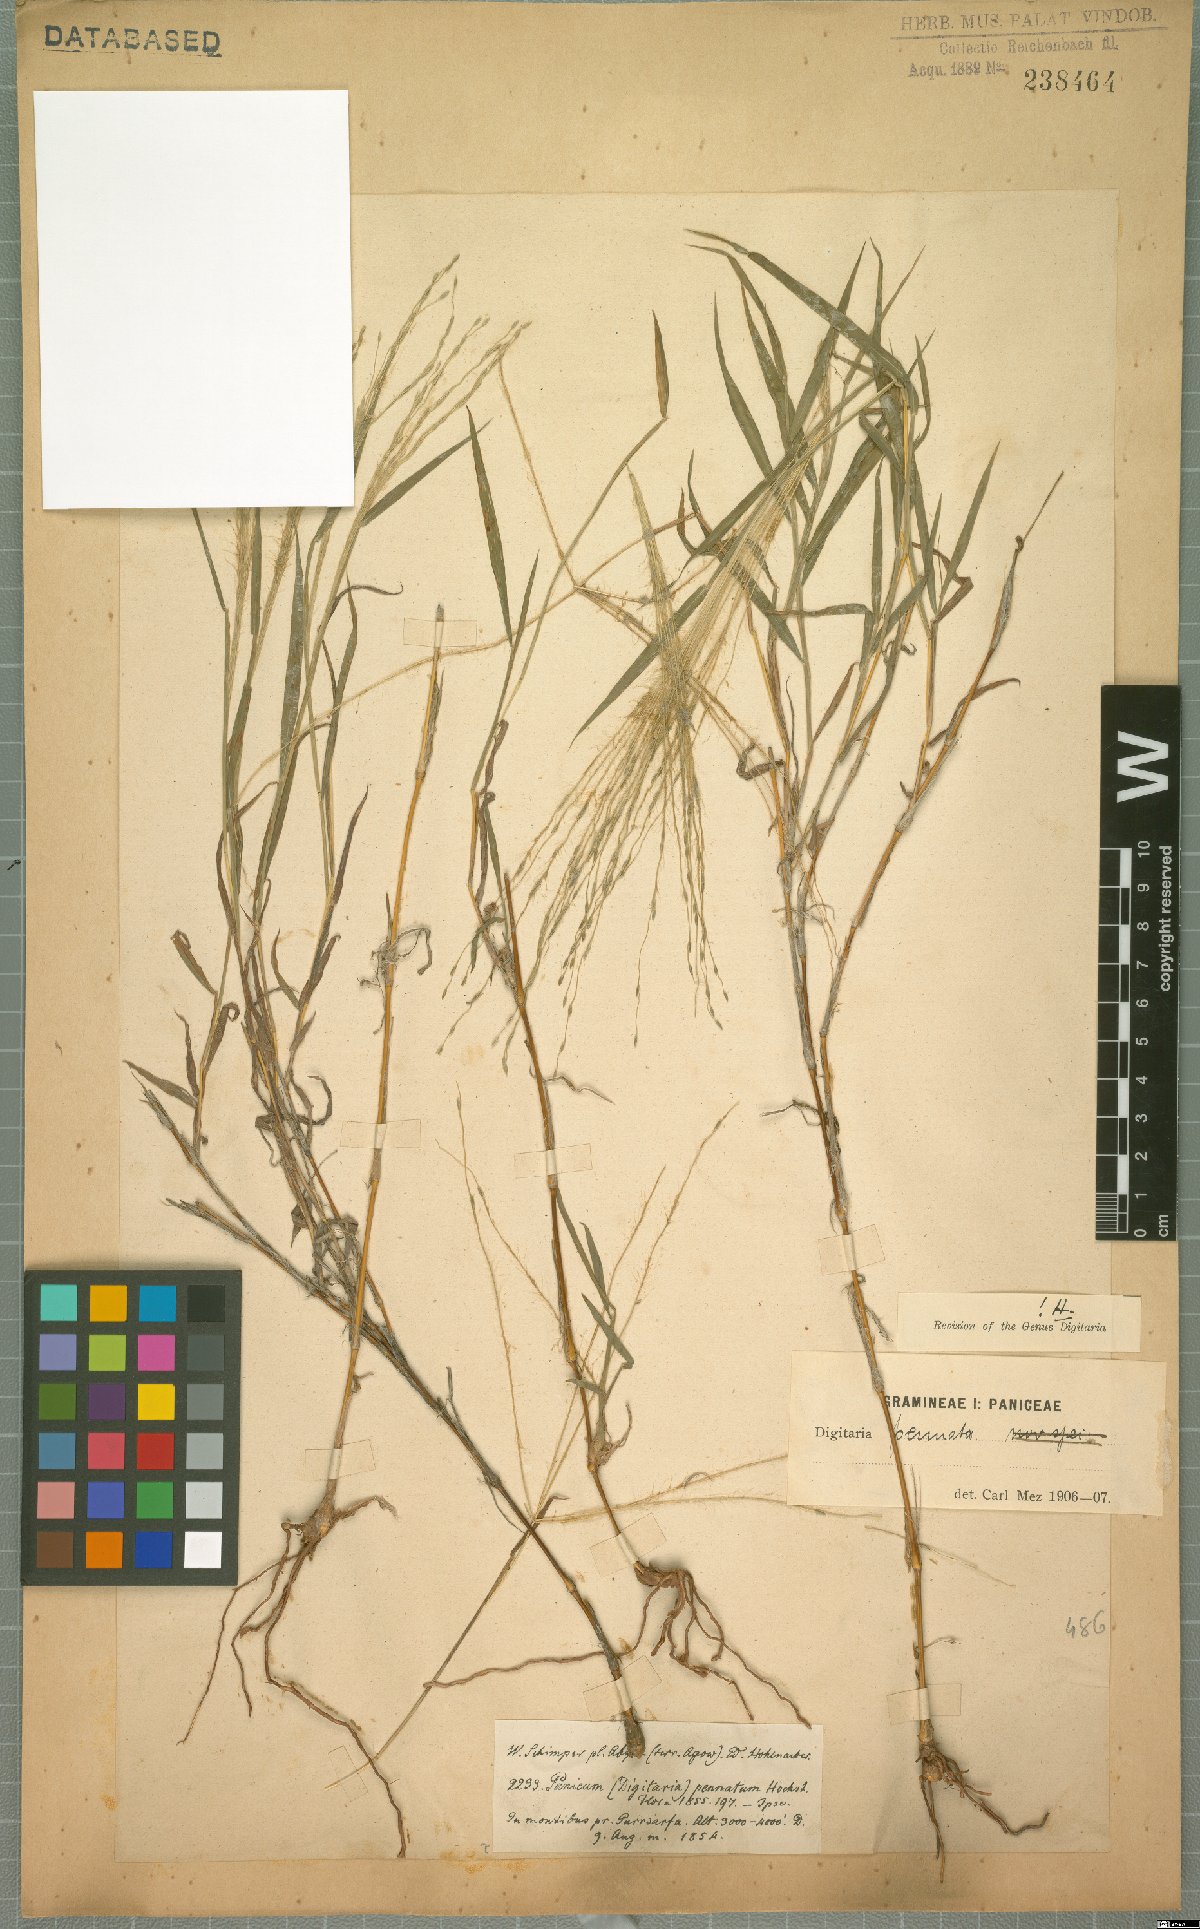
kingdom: Plantae
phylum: Tracheophyta
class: Liliopsida
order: Poales
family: Poaceae
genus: Digitaria
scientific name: Digitaria pennata
